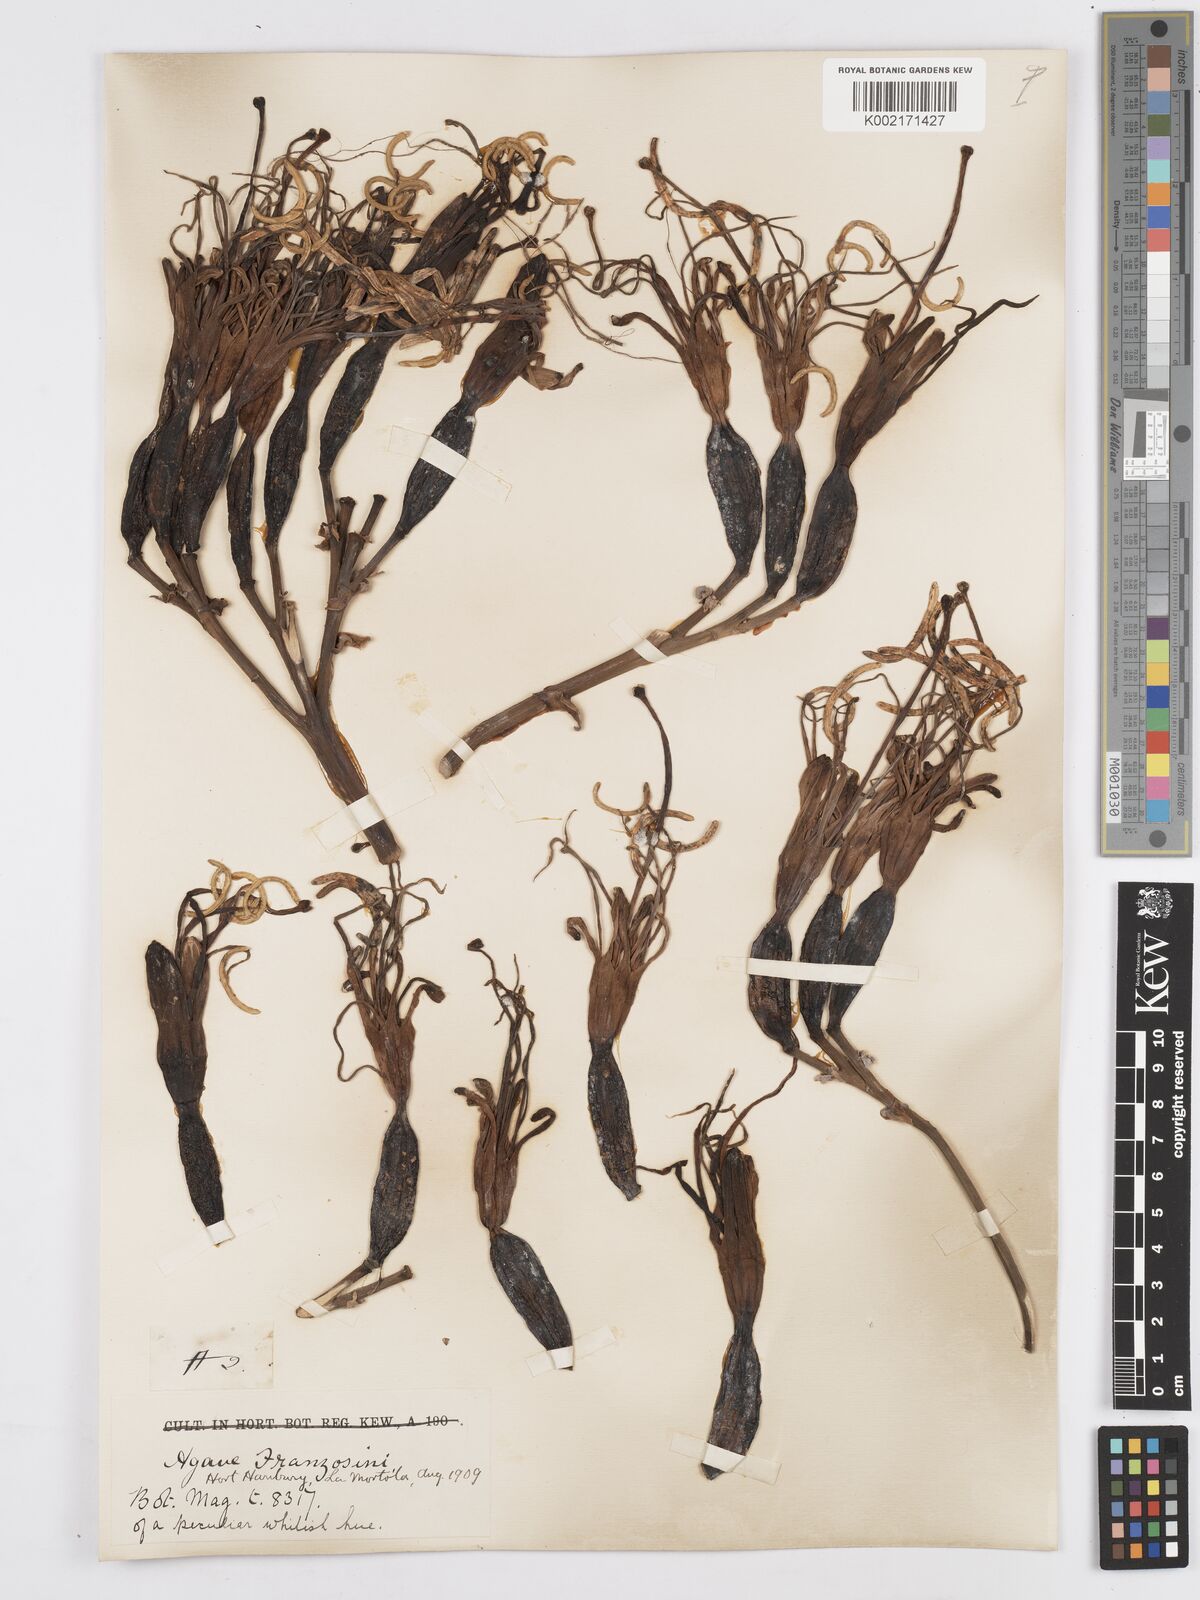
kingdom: Plantae
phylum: Tracheophyta
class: Liliopsida
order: Asparagales
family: Asparagaceae
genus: Agave
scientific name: Agave americana
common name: Centuryplant
